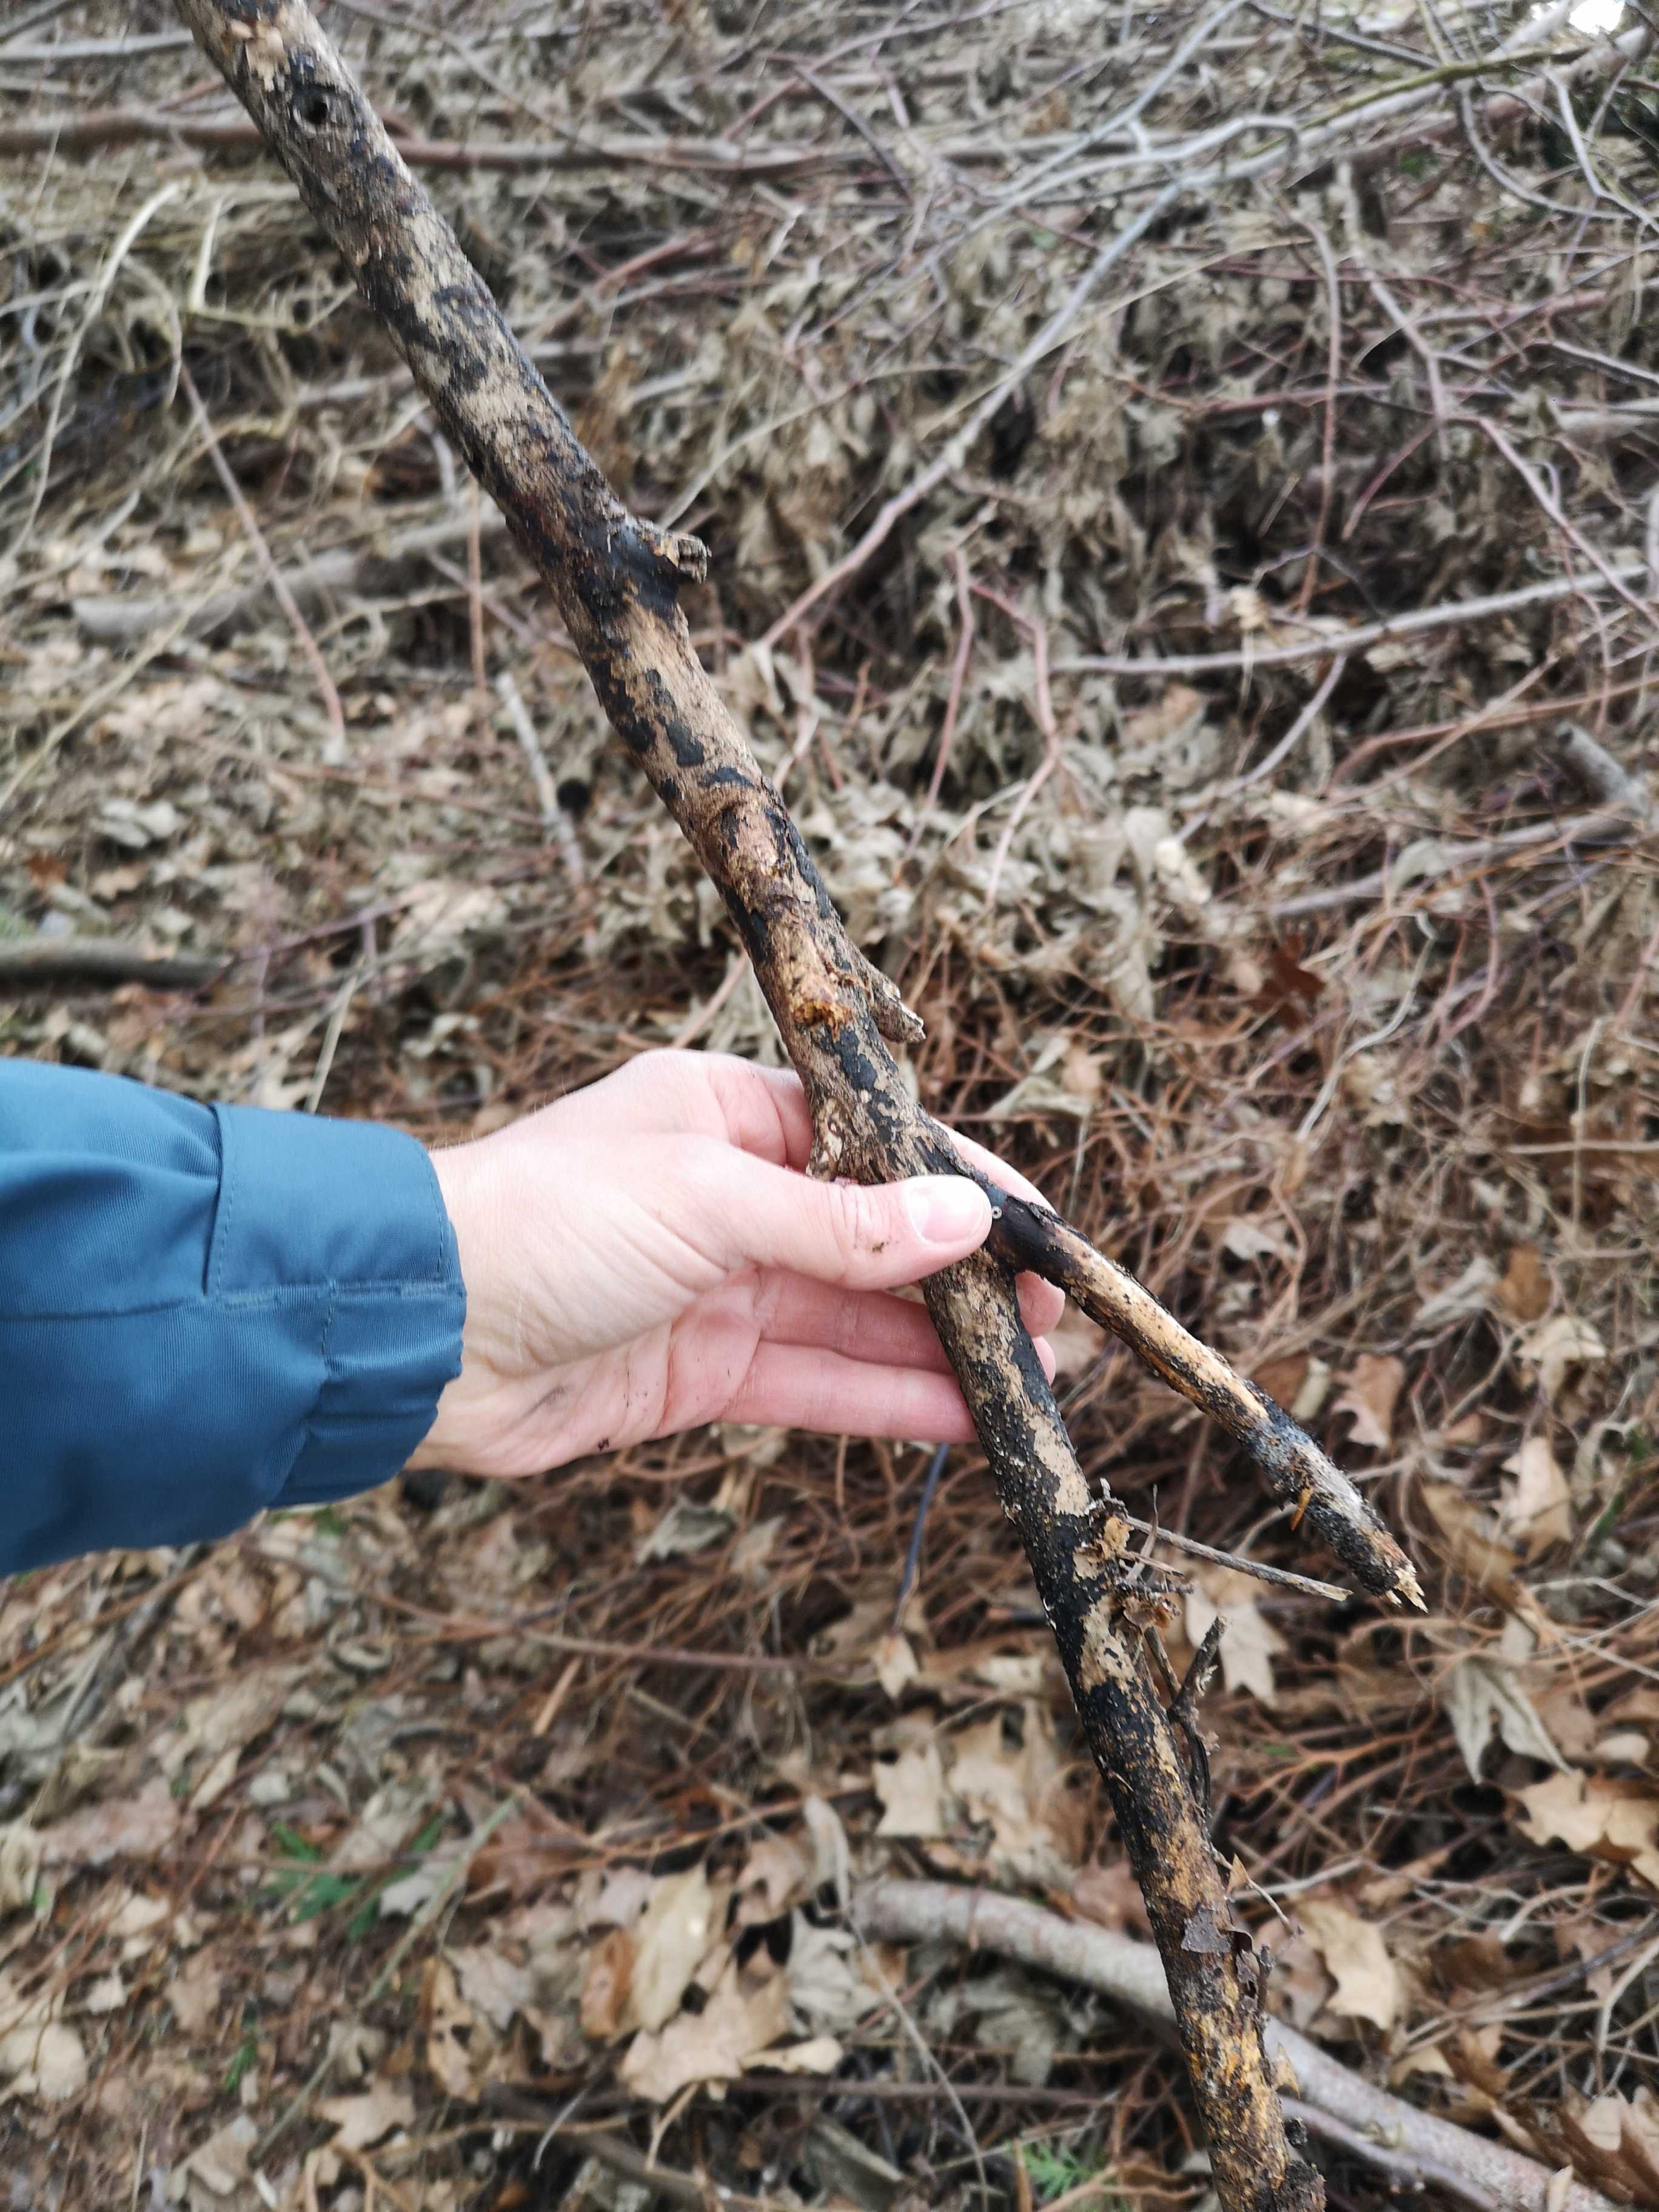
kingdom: Fungi
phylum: Ascomycota
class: Sordariomycetes
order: Hypocreales
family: Nectriaceae
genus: Dialonectria
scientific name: Dialonectria episphaeria
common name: kulskorpe-cinnobersvamp
